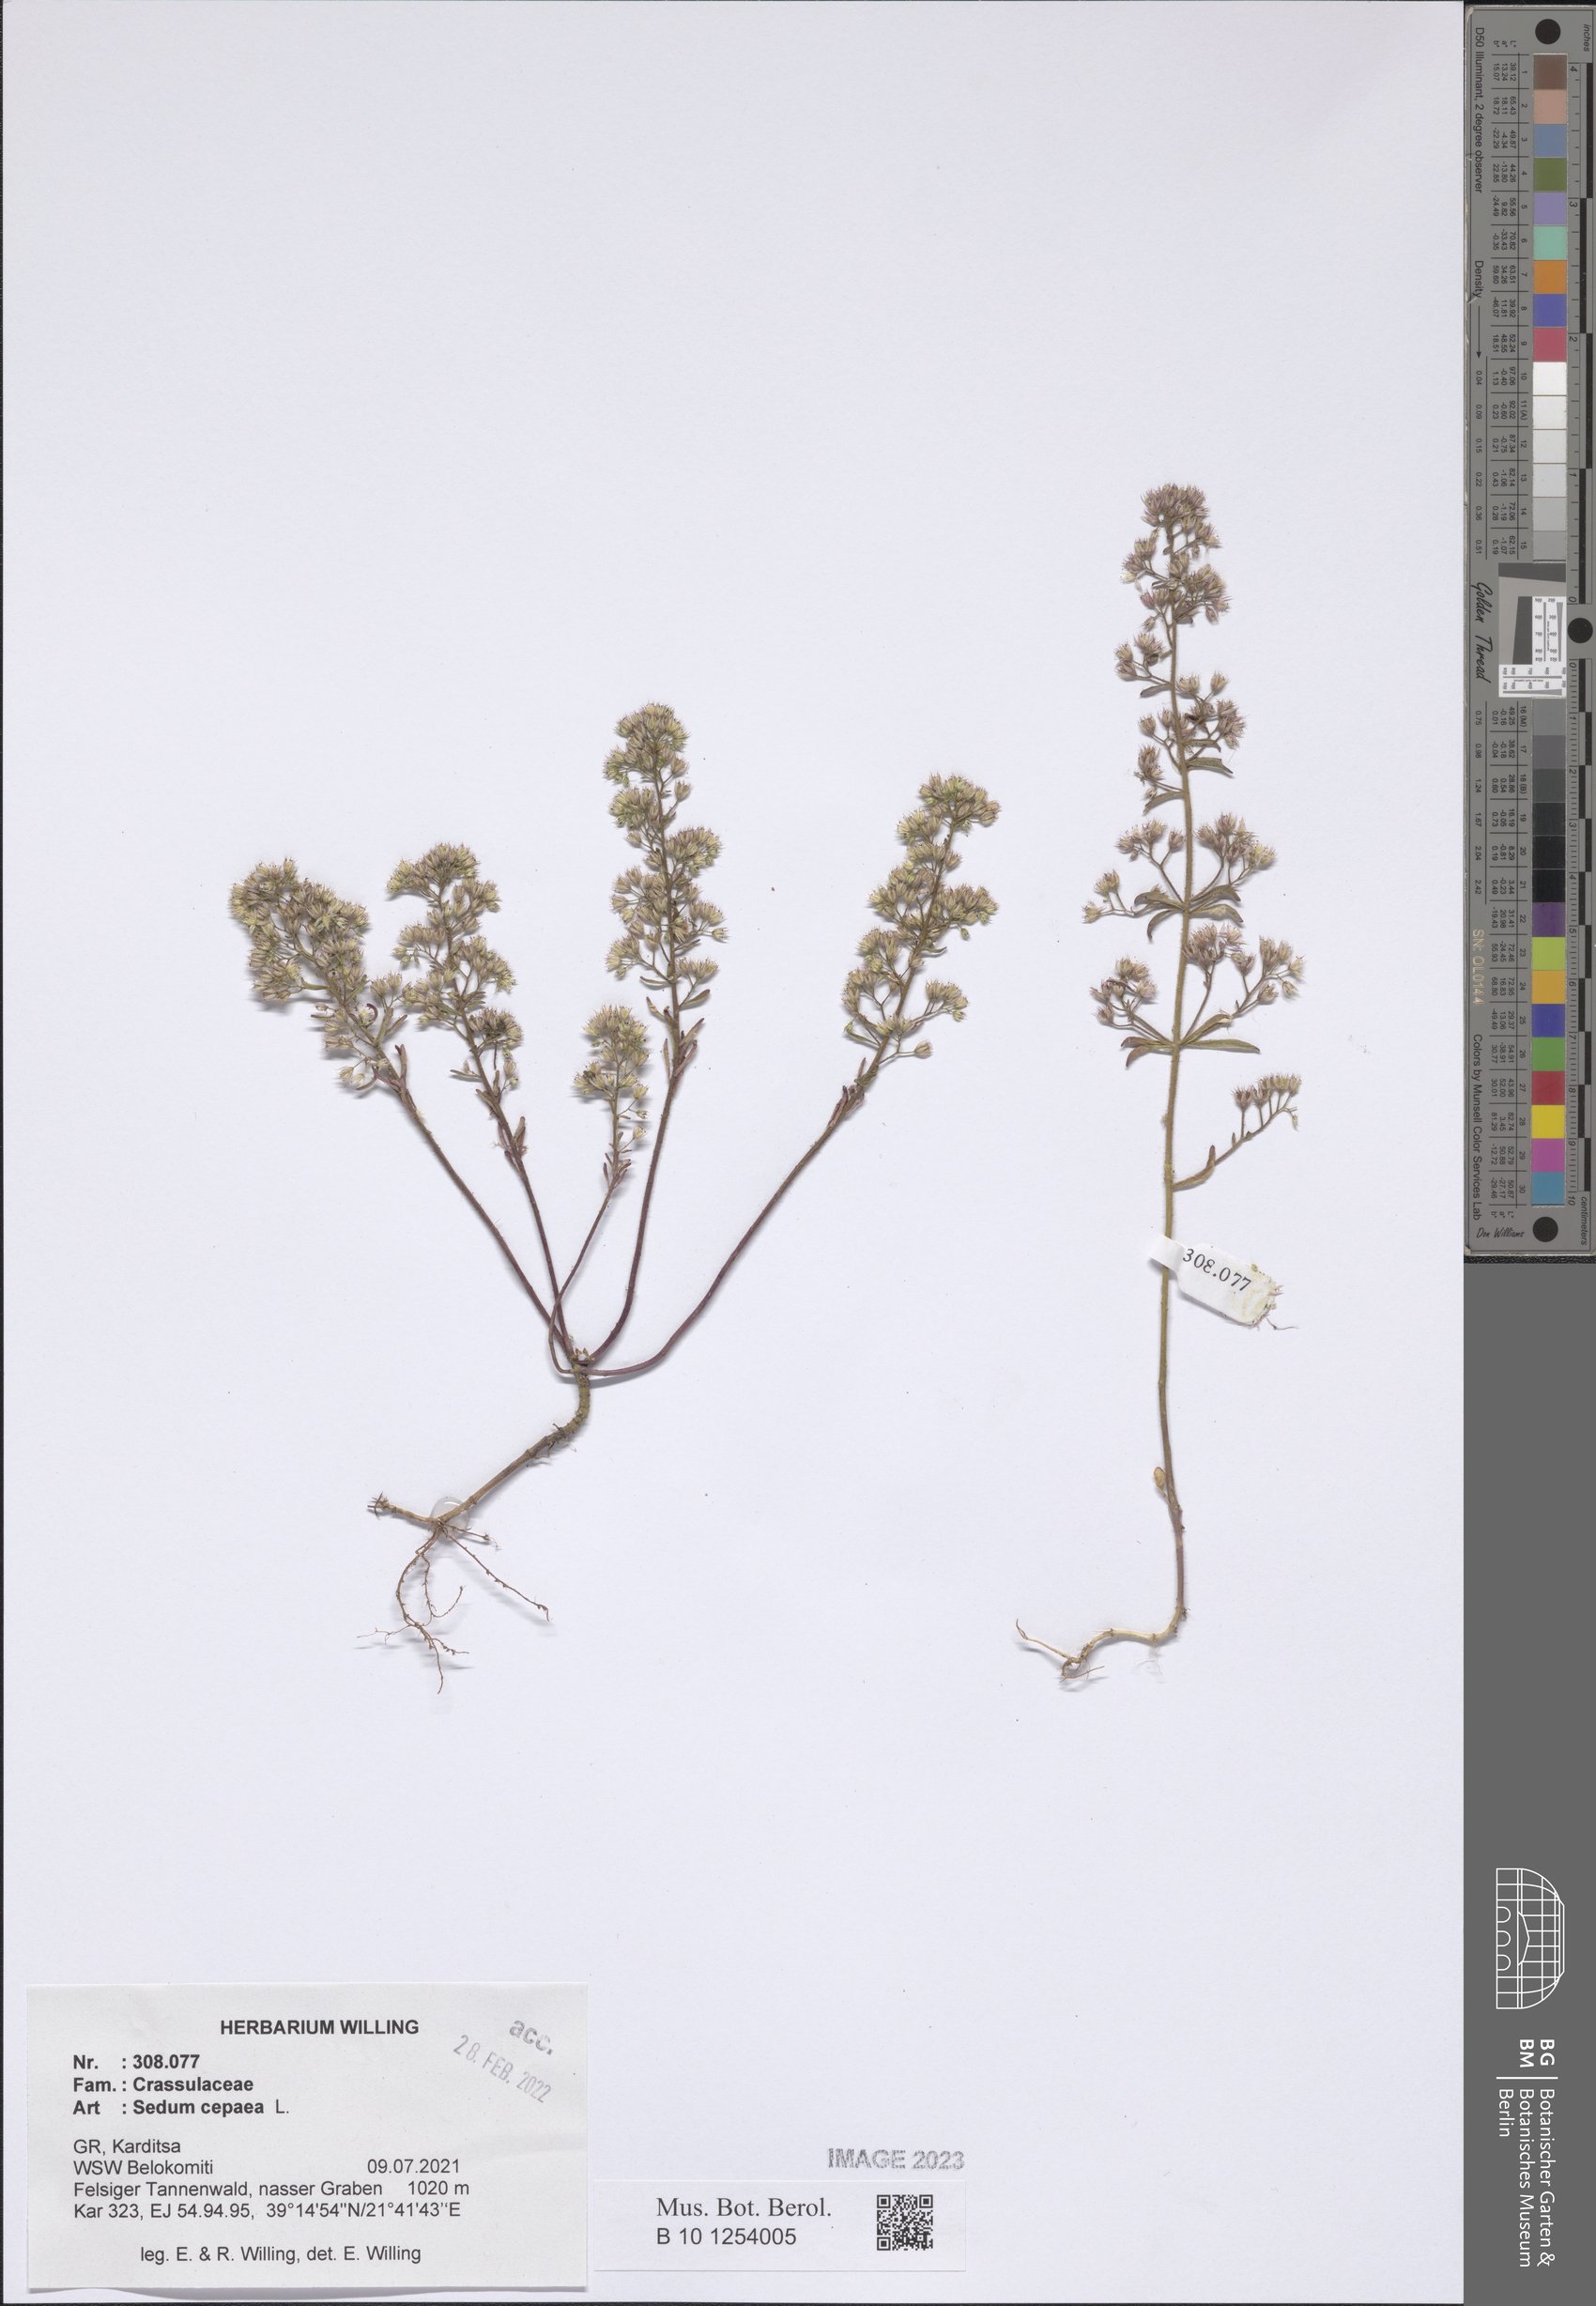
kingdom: Plantae
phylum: Tracheophyta
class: Magnoliopsida
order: Saxifragales
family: Crassulaceae
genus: Sedum
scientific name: Sedum cepaea
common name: Pink stonecrop
